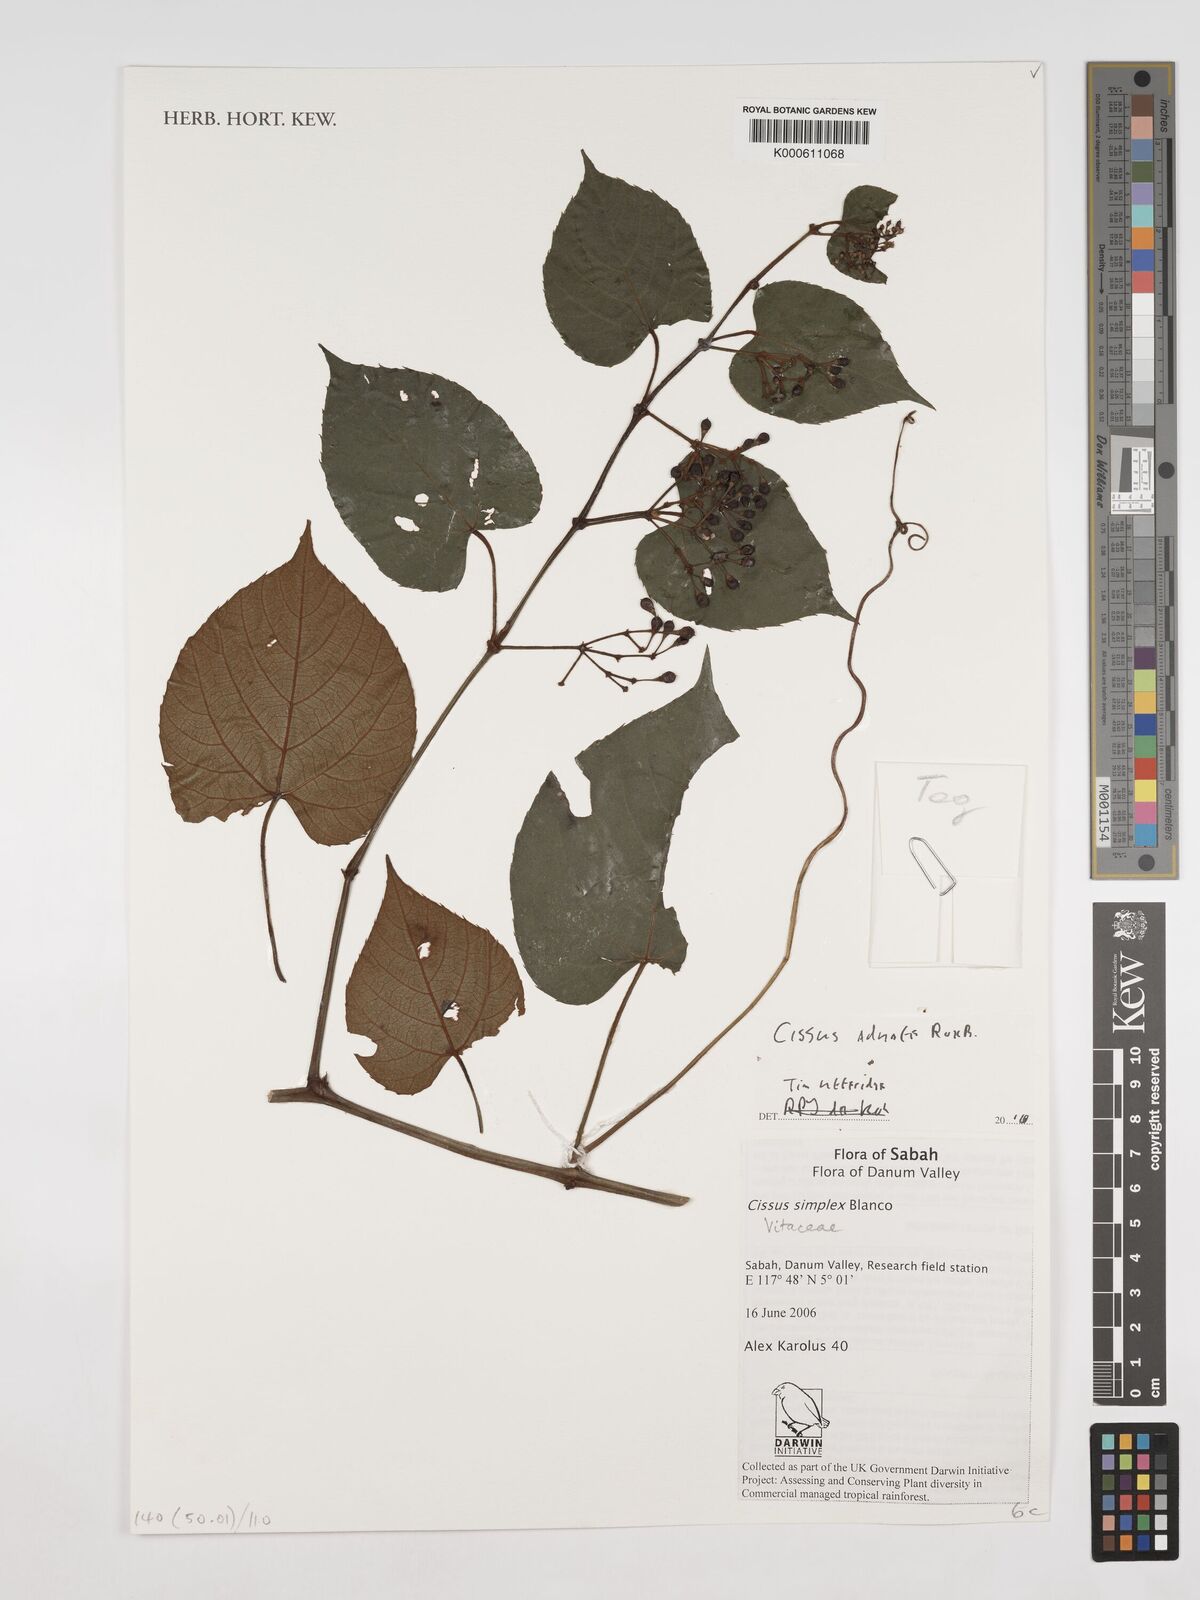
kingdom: Plantae
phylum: Tracheophyta
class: Magnoliopsida
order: Vitales
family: Vitaceae
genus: Cissus
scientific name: Cissus adnata
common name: Heart-leaf-grape
